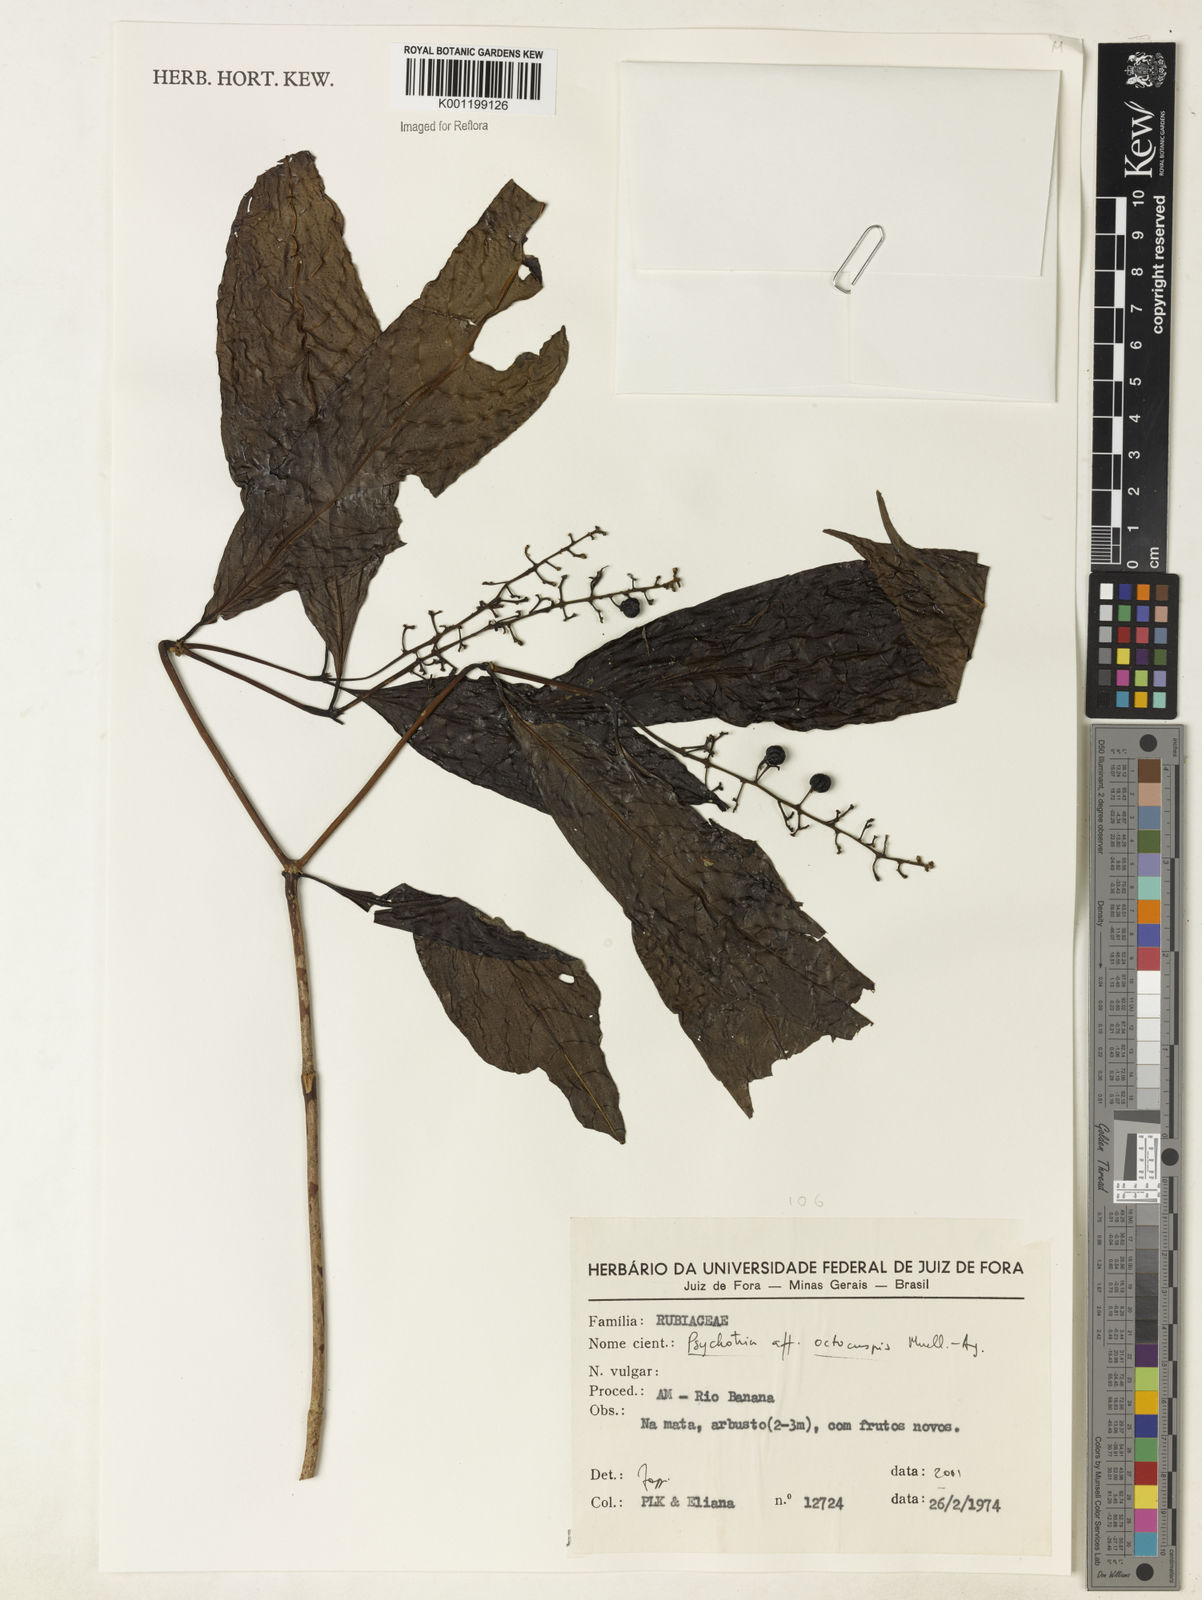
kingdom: Plantae
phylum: Tracheophyta
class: Magnoliopsida
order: Gentianales
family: Rubiaceae
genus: Psychotria
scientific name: Psychotria
